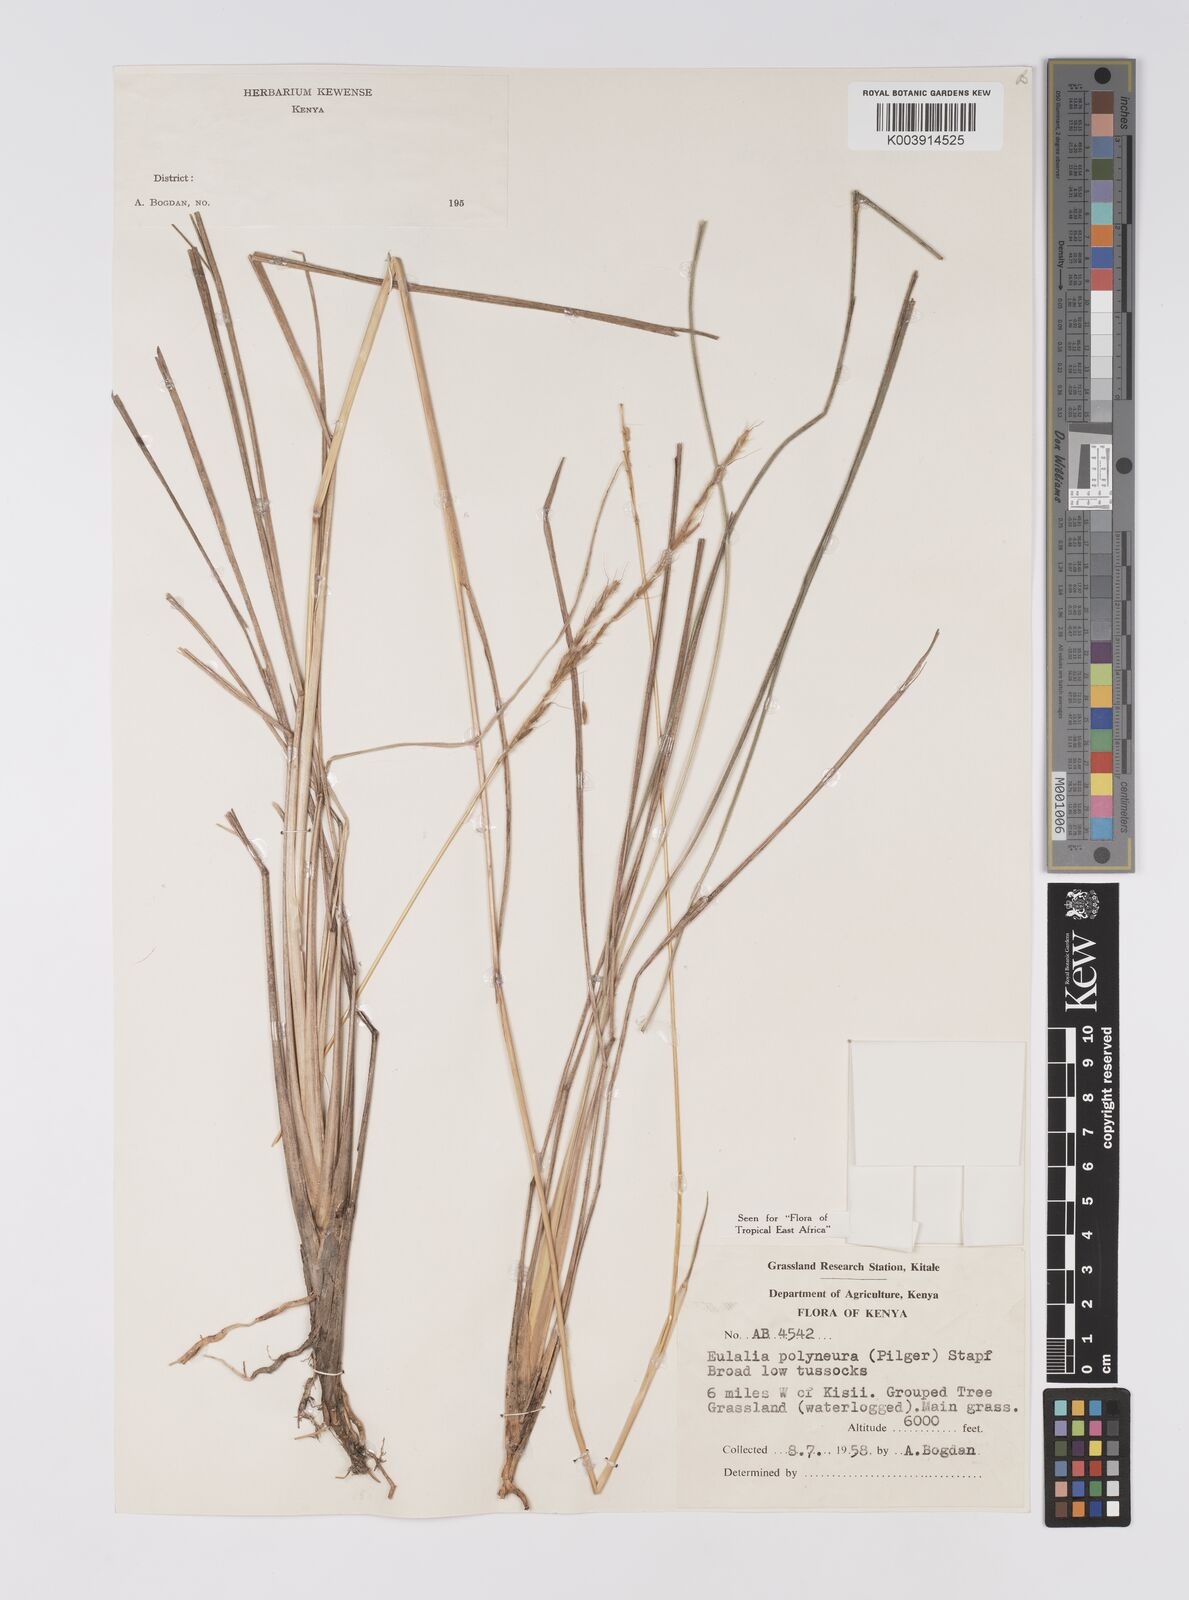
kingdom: Plantae
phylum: Tracheophyta
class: Liliopsida
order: Poales
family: Poaceae
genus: Eulalia
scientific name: Eulalia polyneura
